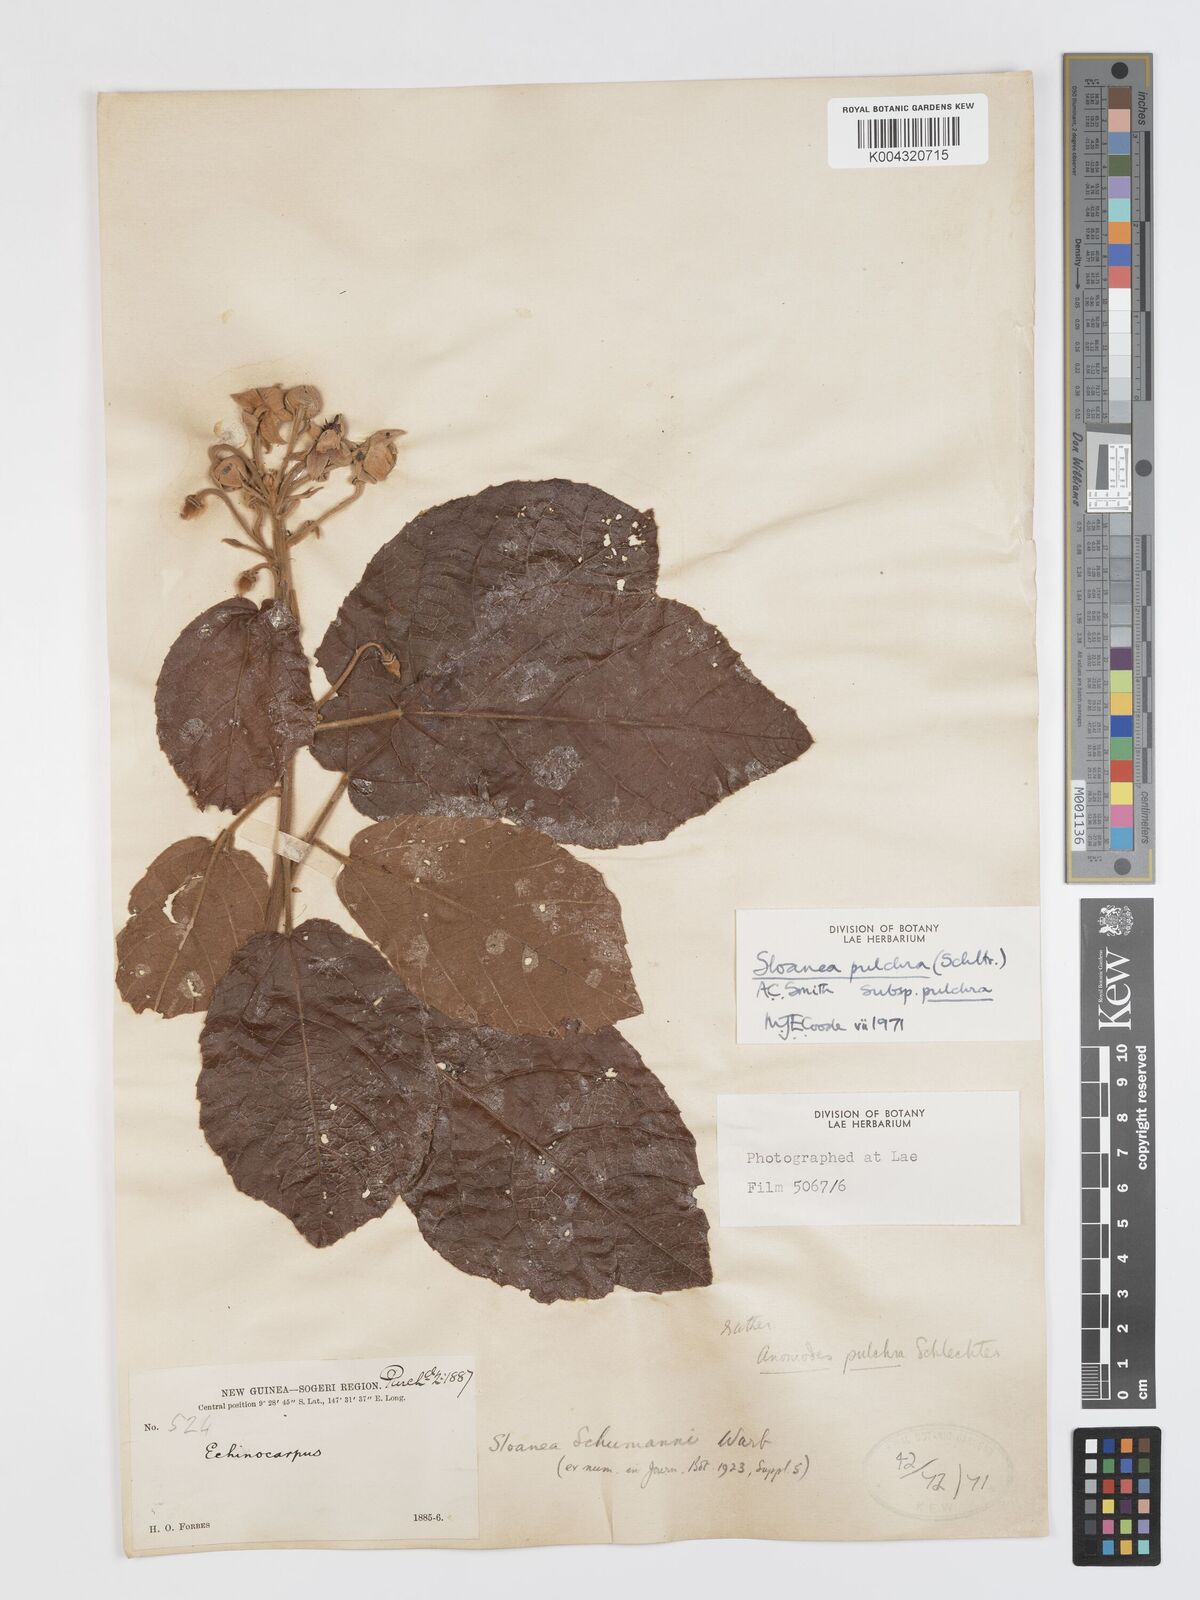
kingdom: Plantae
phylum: Tracheophyta
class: Magnoliopsida
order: Oxalidales
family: Elaeocarpaceae
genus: Sloanea
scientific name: Sloanea pulchra
